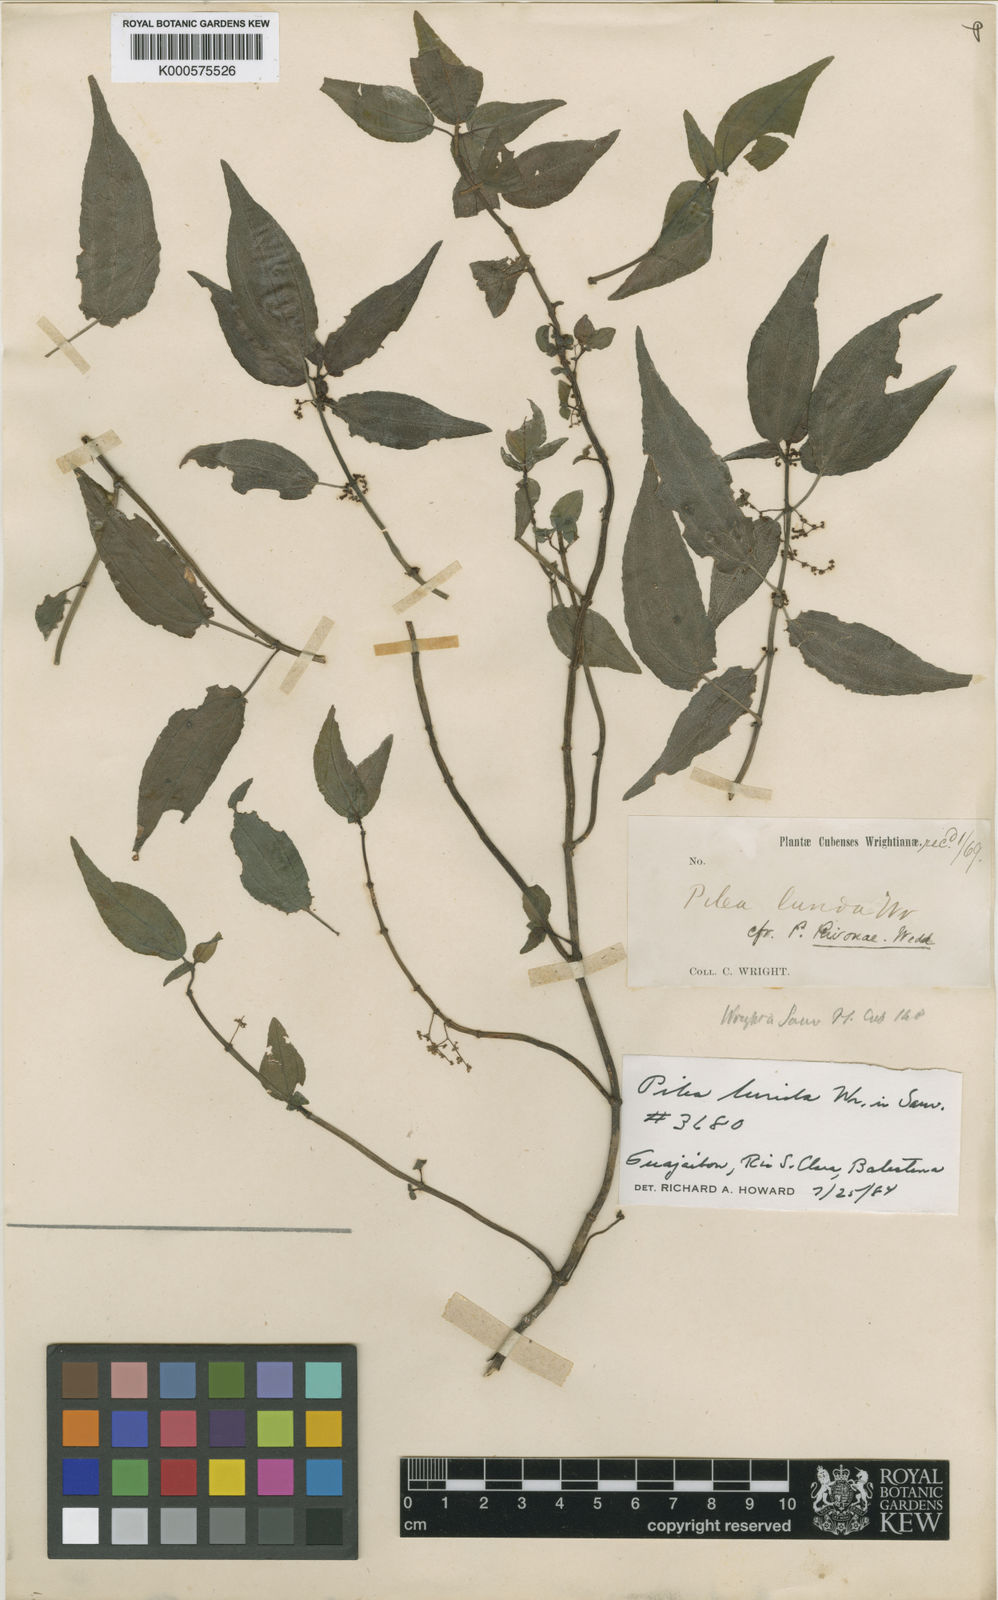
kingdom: Plantae
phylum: Tracheophyta
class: Magnoliopsida
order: Rosales
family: Urticaceae
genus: Pilea
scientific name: Pilea lurida
